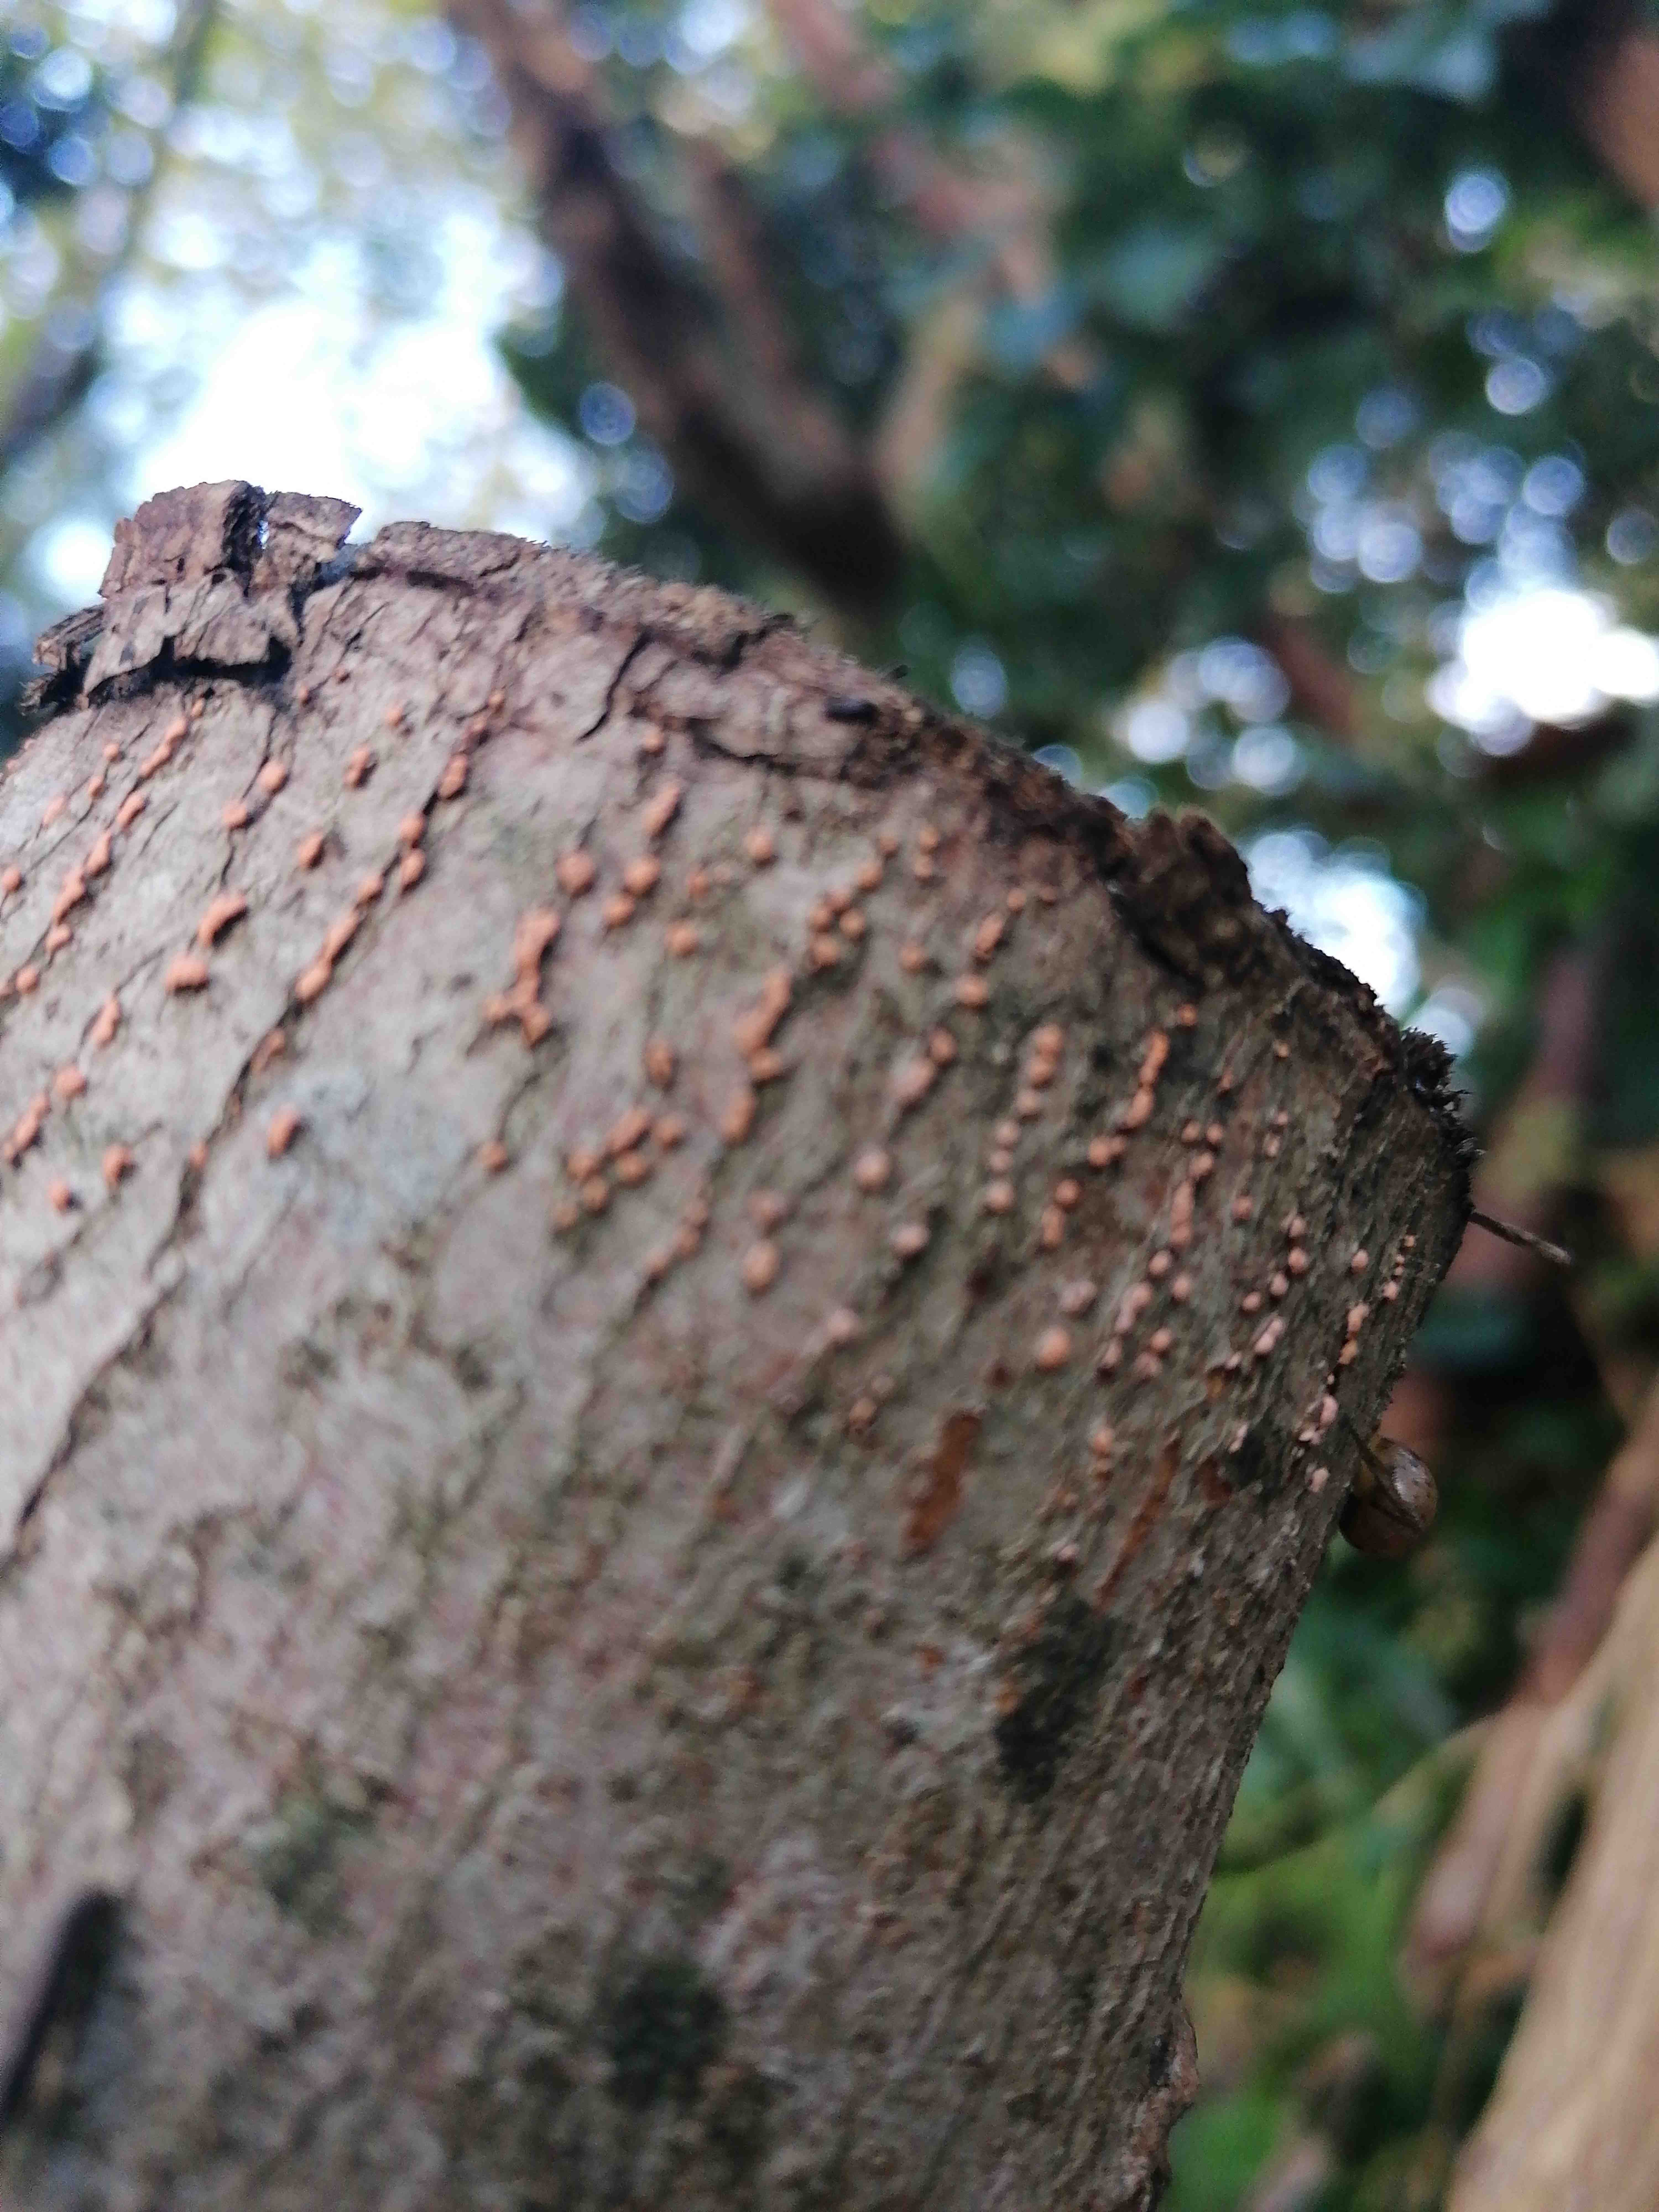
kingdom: Fungi
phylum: Ascomycota
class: Sordariomycetes
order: Hypocreales
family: Nectriaceae
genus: Nectria
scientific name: Nectria cinnabarina
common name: almindelig cinnobersvamp
